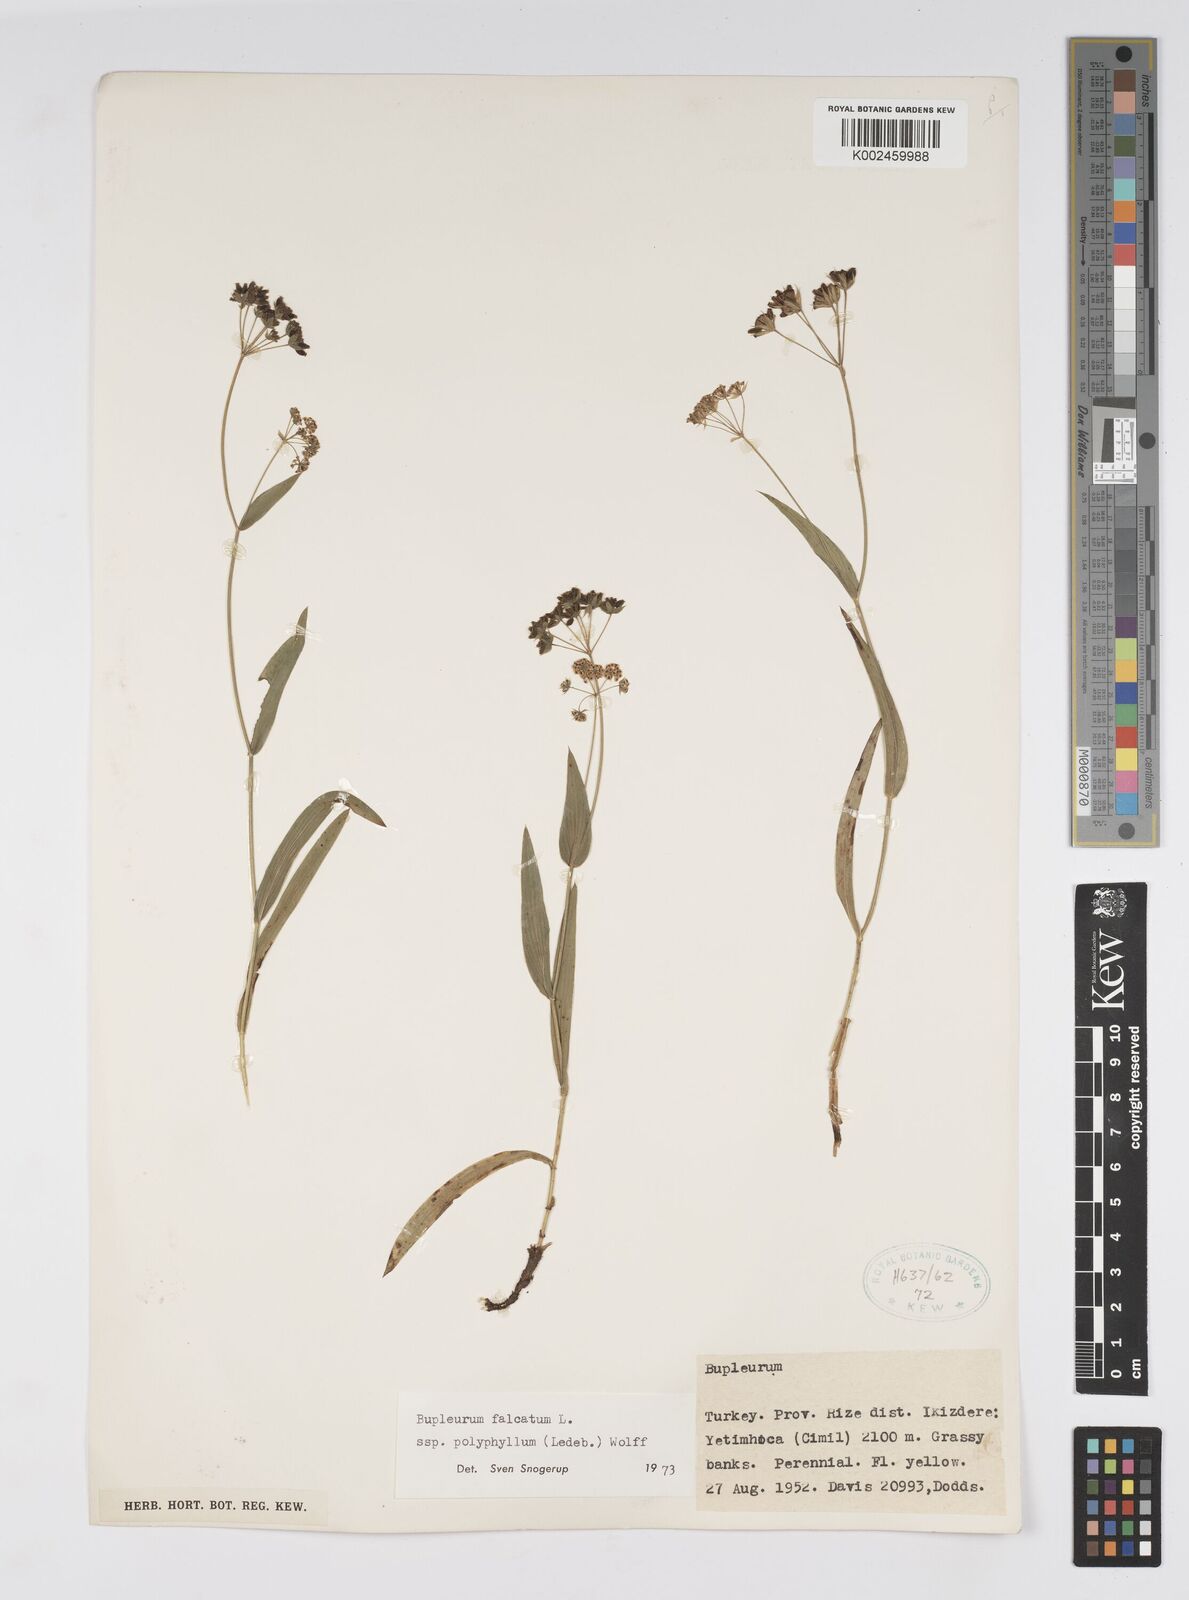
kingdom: Plantae
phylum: Tracheophyta
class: Magnoliopsida
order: Apiales
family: Apiaceae
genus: Bupleurum
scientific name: Bupleurum falcatum
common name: Sickle-leaved hare's-ear
